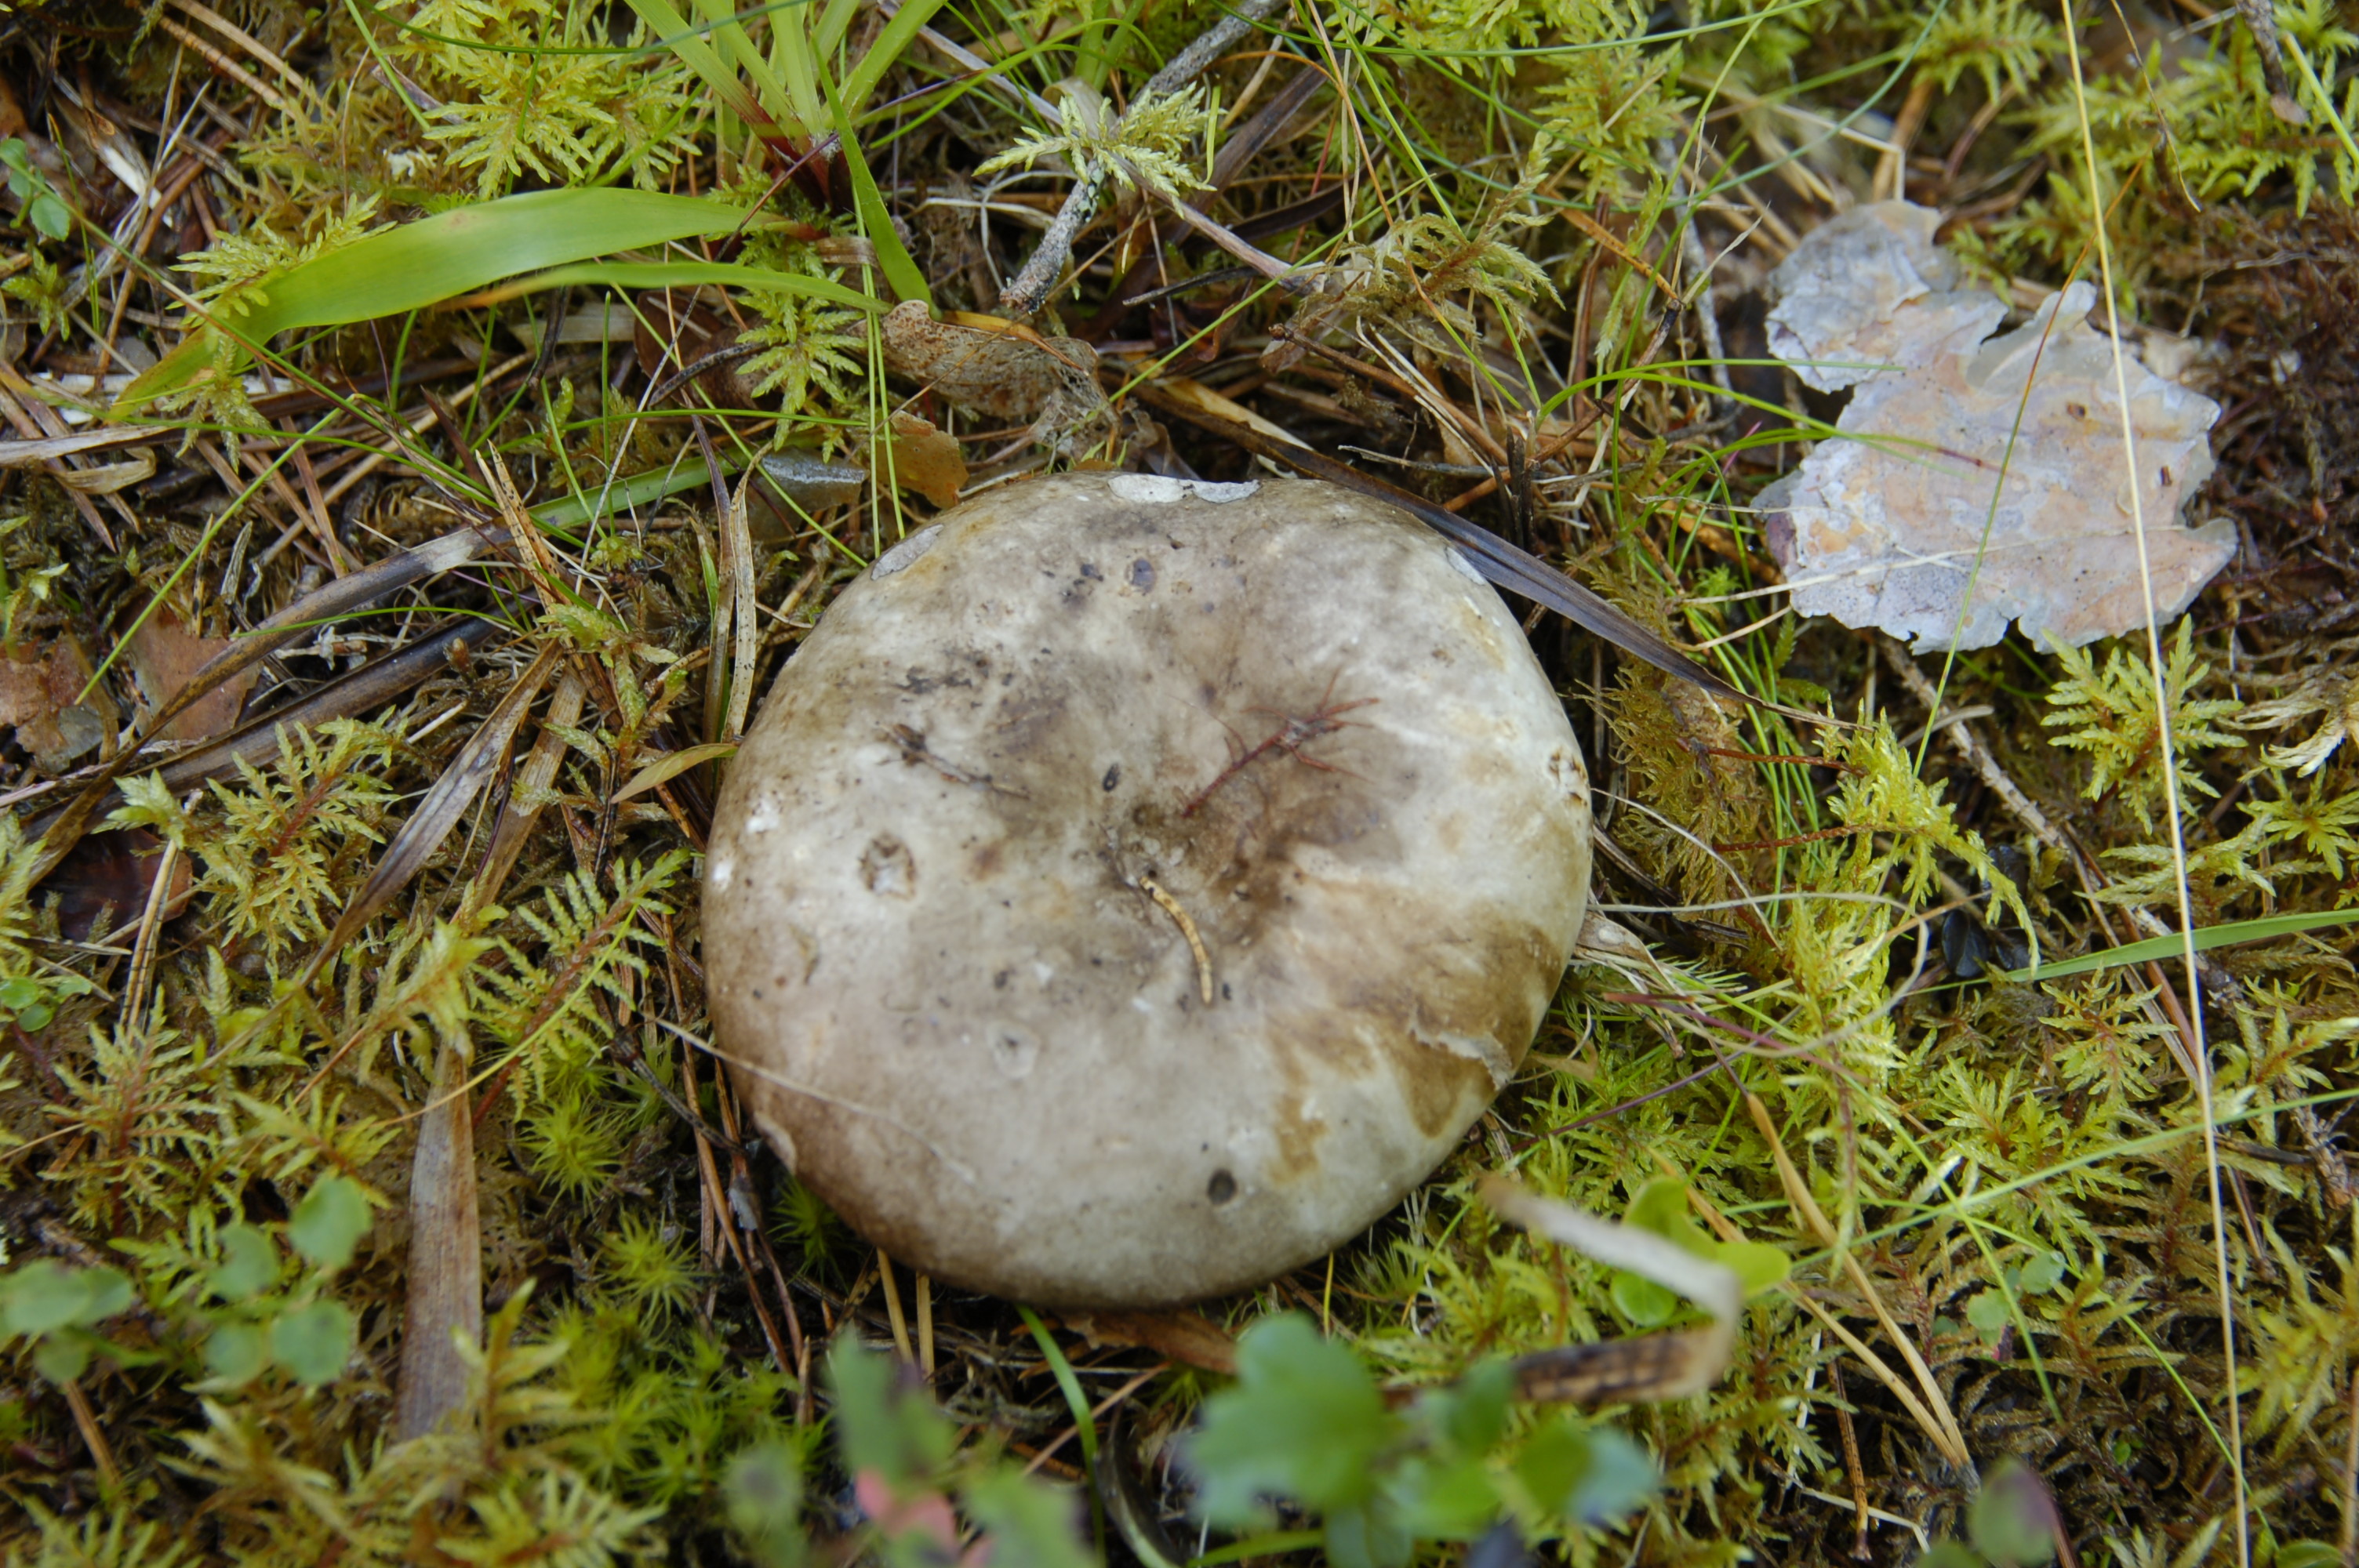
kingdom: Fungi
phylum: Basidiomycota
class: Agaricomycetes
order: Russulales
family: Russulaceae
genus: Russula
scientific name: Russula albonigra
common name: Menthol brittlegill
